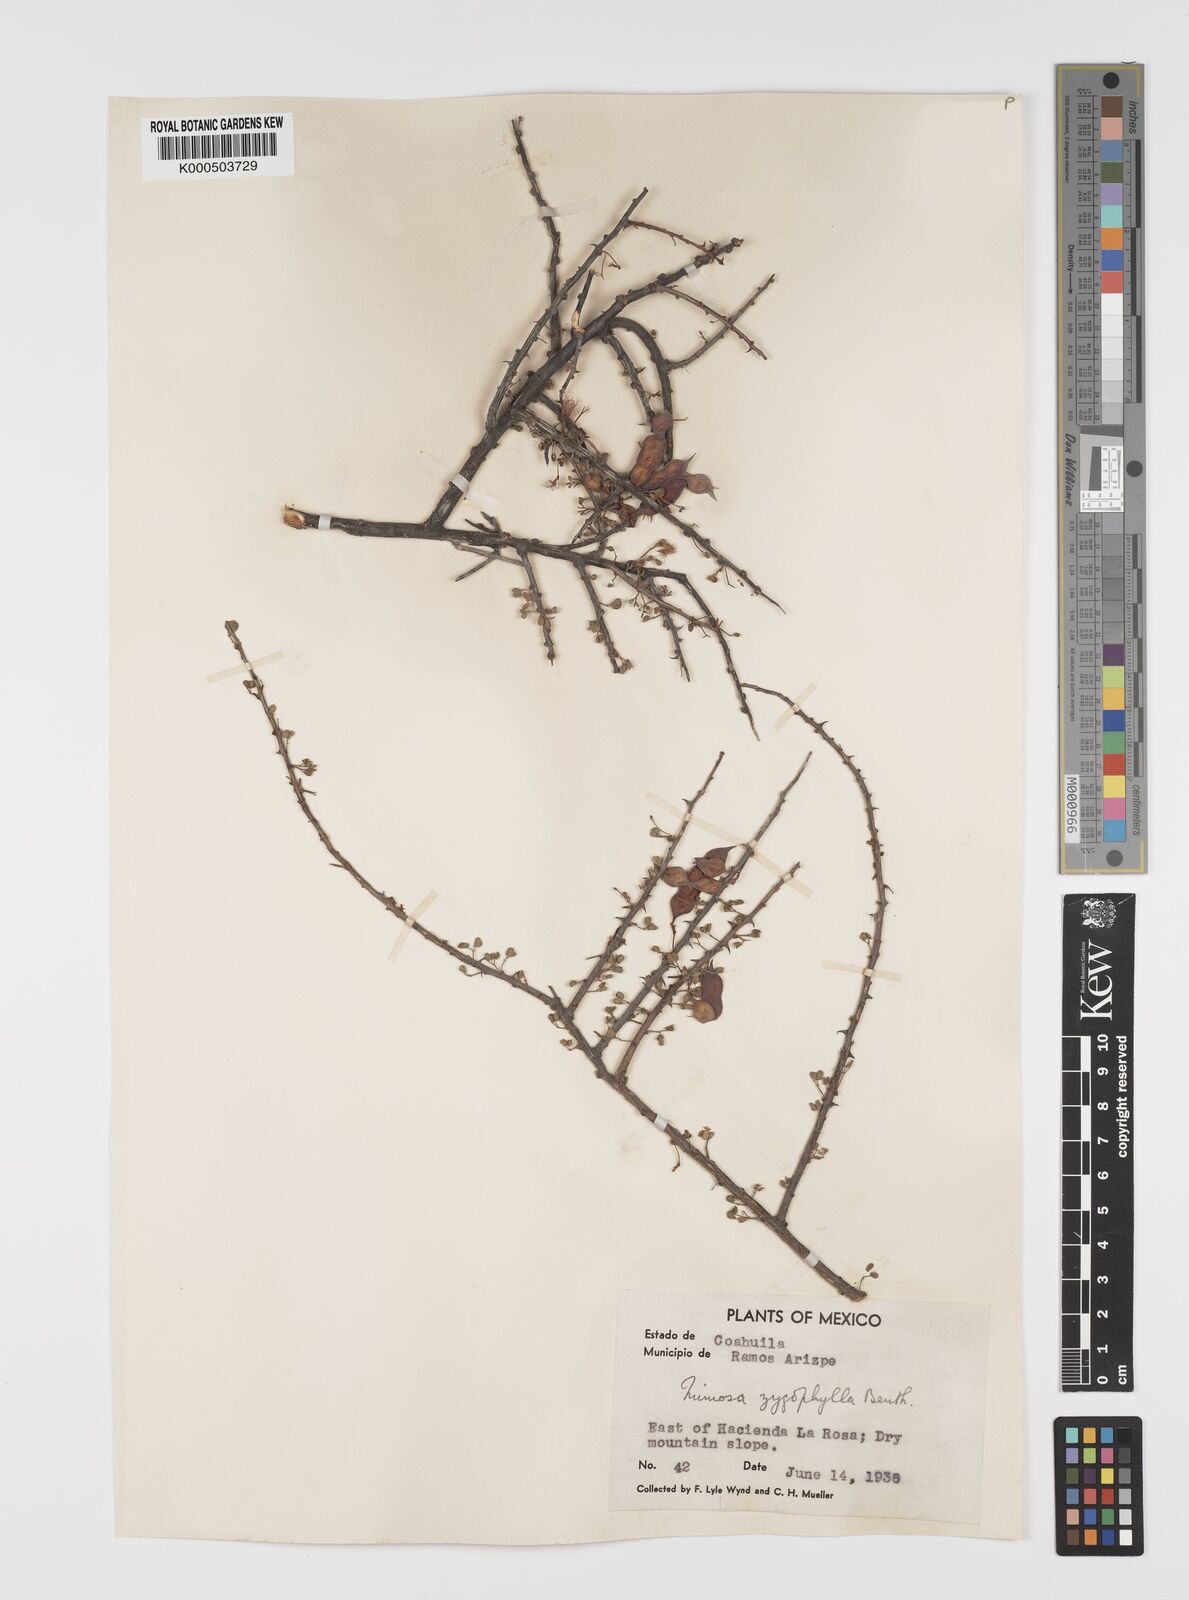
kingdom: Plantae
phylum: Tracheophyta
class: Magnoliopsida
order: Fabales
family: Fabaceae
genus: Mimosa
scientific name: Mimosa zygophylla
